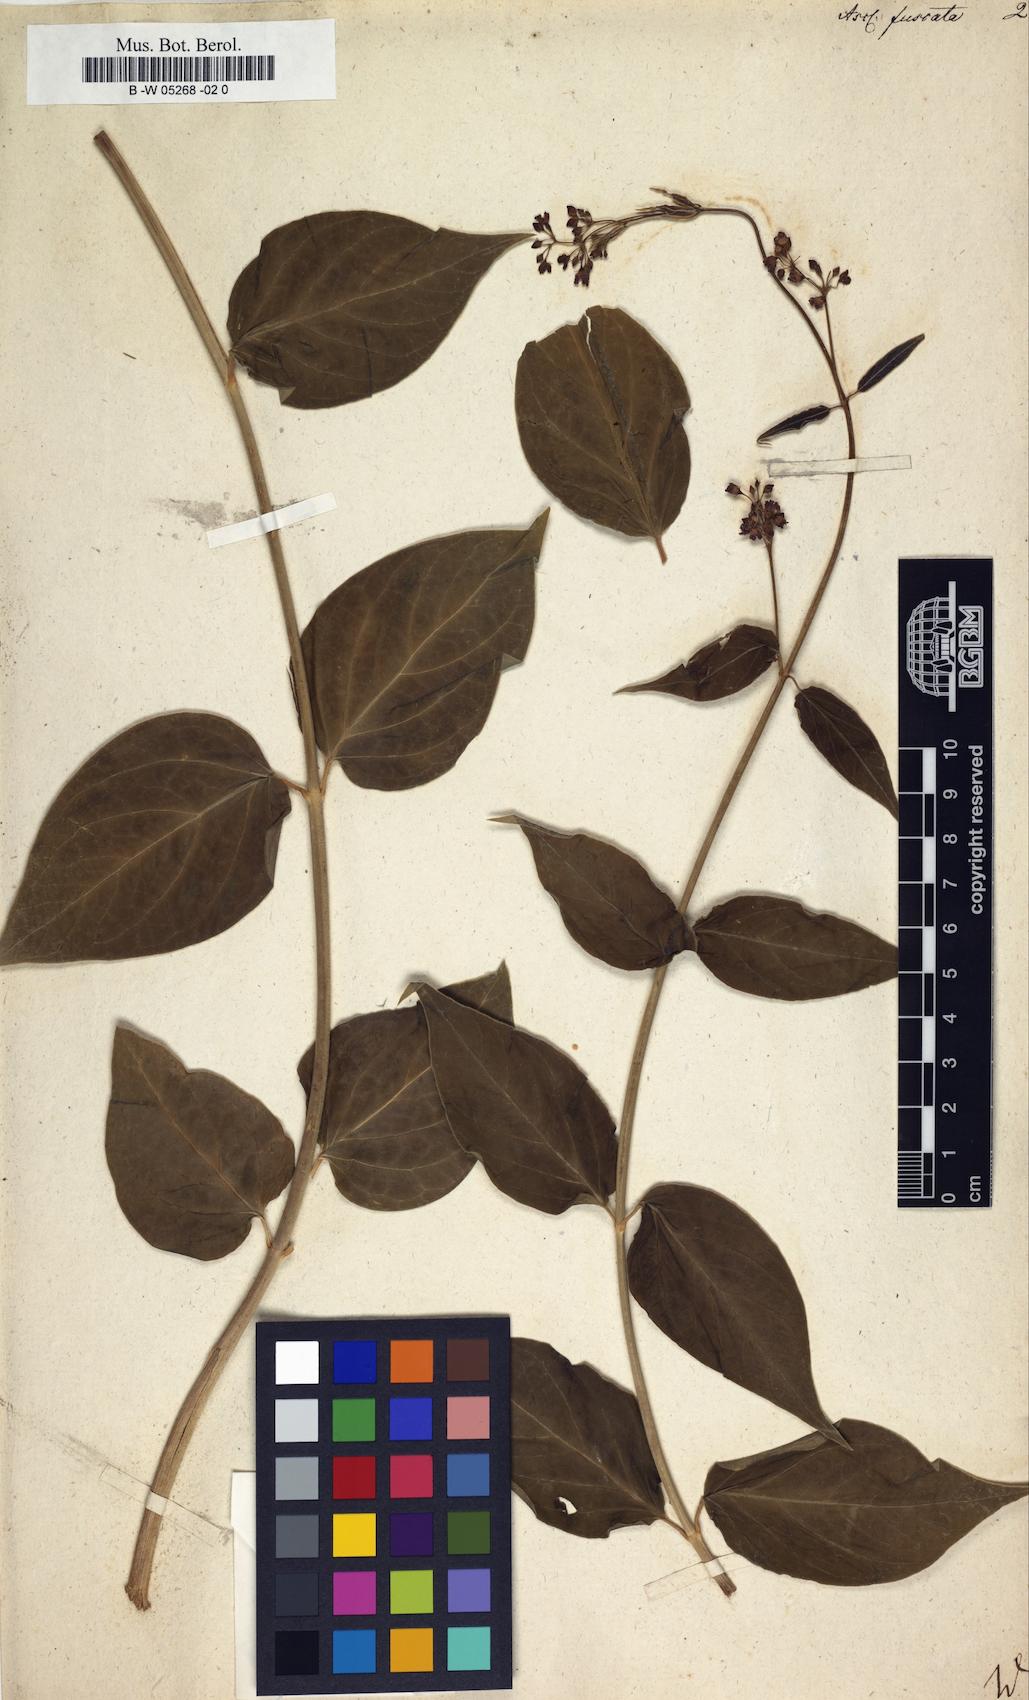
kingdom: Plantae
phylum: Tracheophyta
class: Magnoliopsida
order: Gentianales
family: Apocynaceae
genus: Vincetoxicum
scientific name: Vincetoxicum nigrum
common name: Black swallow-wort
